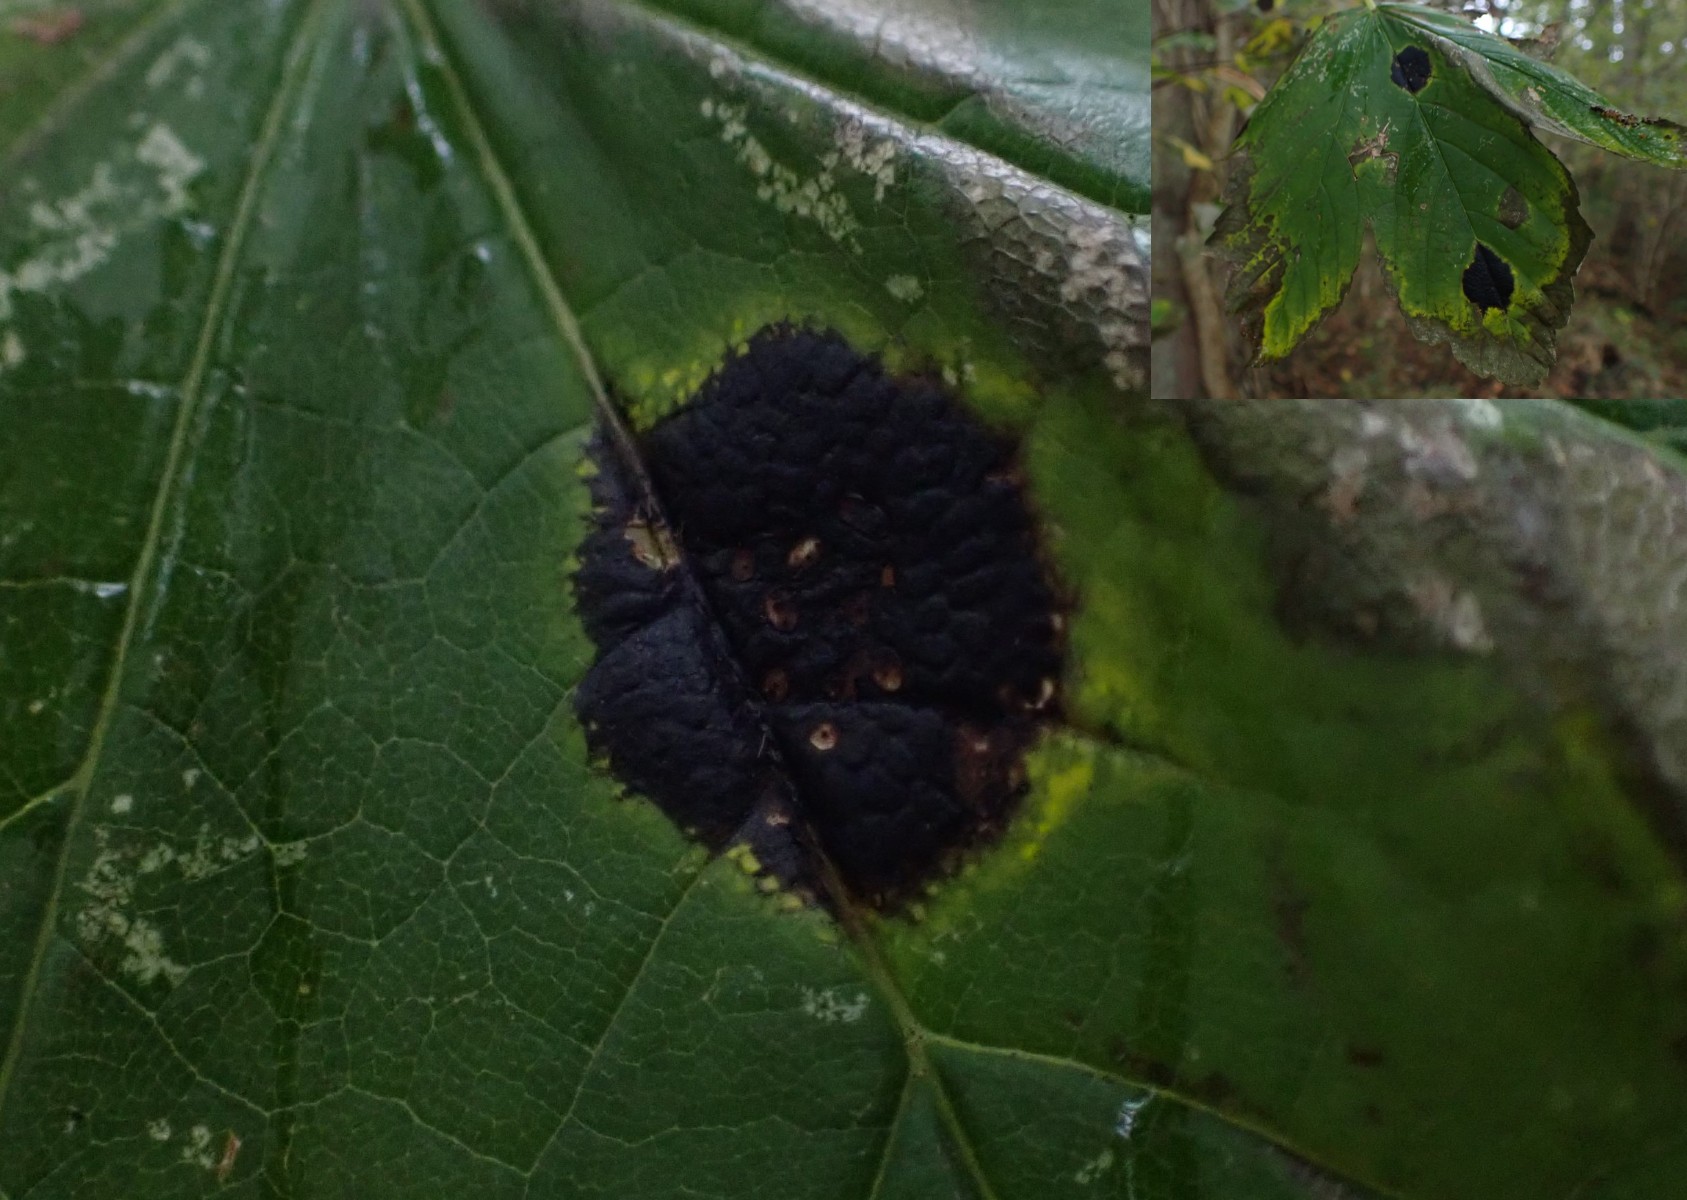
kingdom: Fungi
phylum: Ascomycota
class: Leotiomycetes
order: Rhytismatales
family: Rhytismataceae
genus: Rhytisma
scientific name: Rhytisma acerinum
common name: ahorn-rynkeplet
